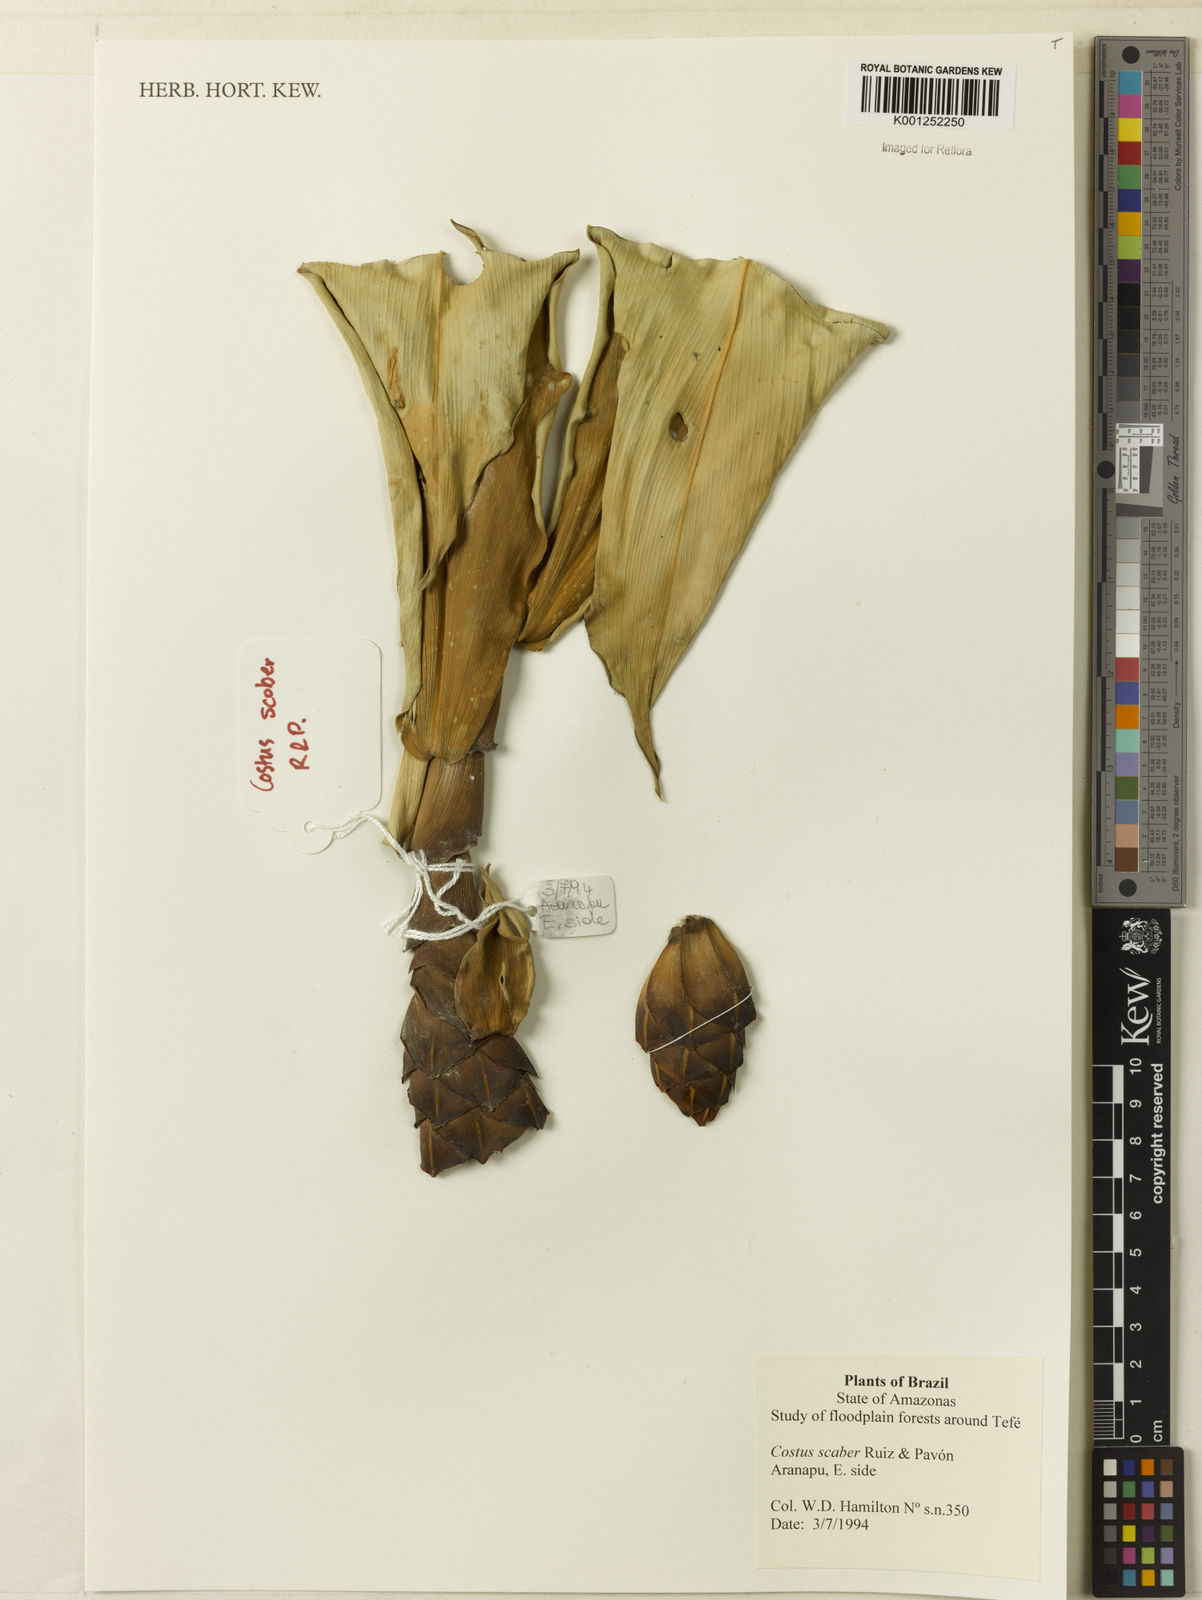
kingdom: Plantae
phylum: Tracheophyta
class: Liliopsida
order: Zingiberales
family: Costaceae
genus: Costus
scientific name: Costus scaber
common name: Spiral head ginger
